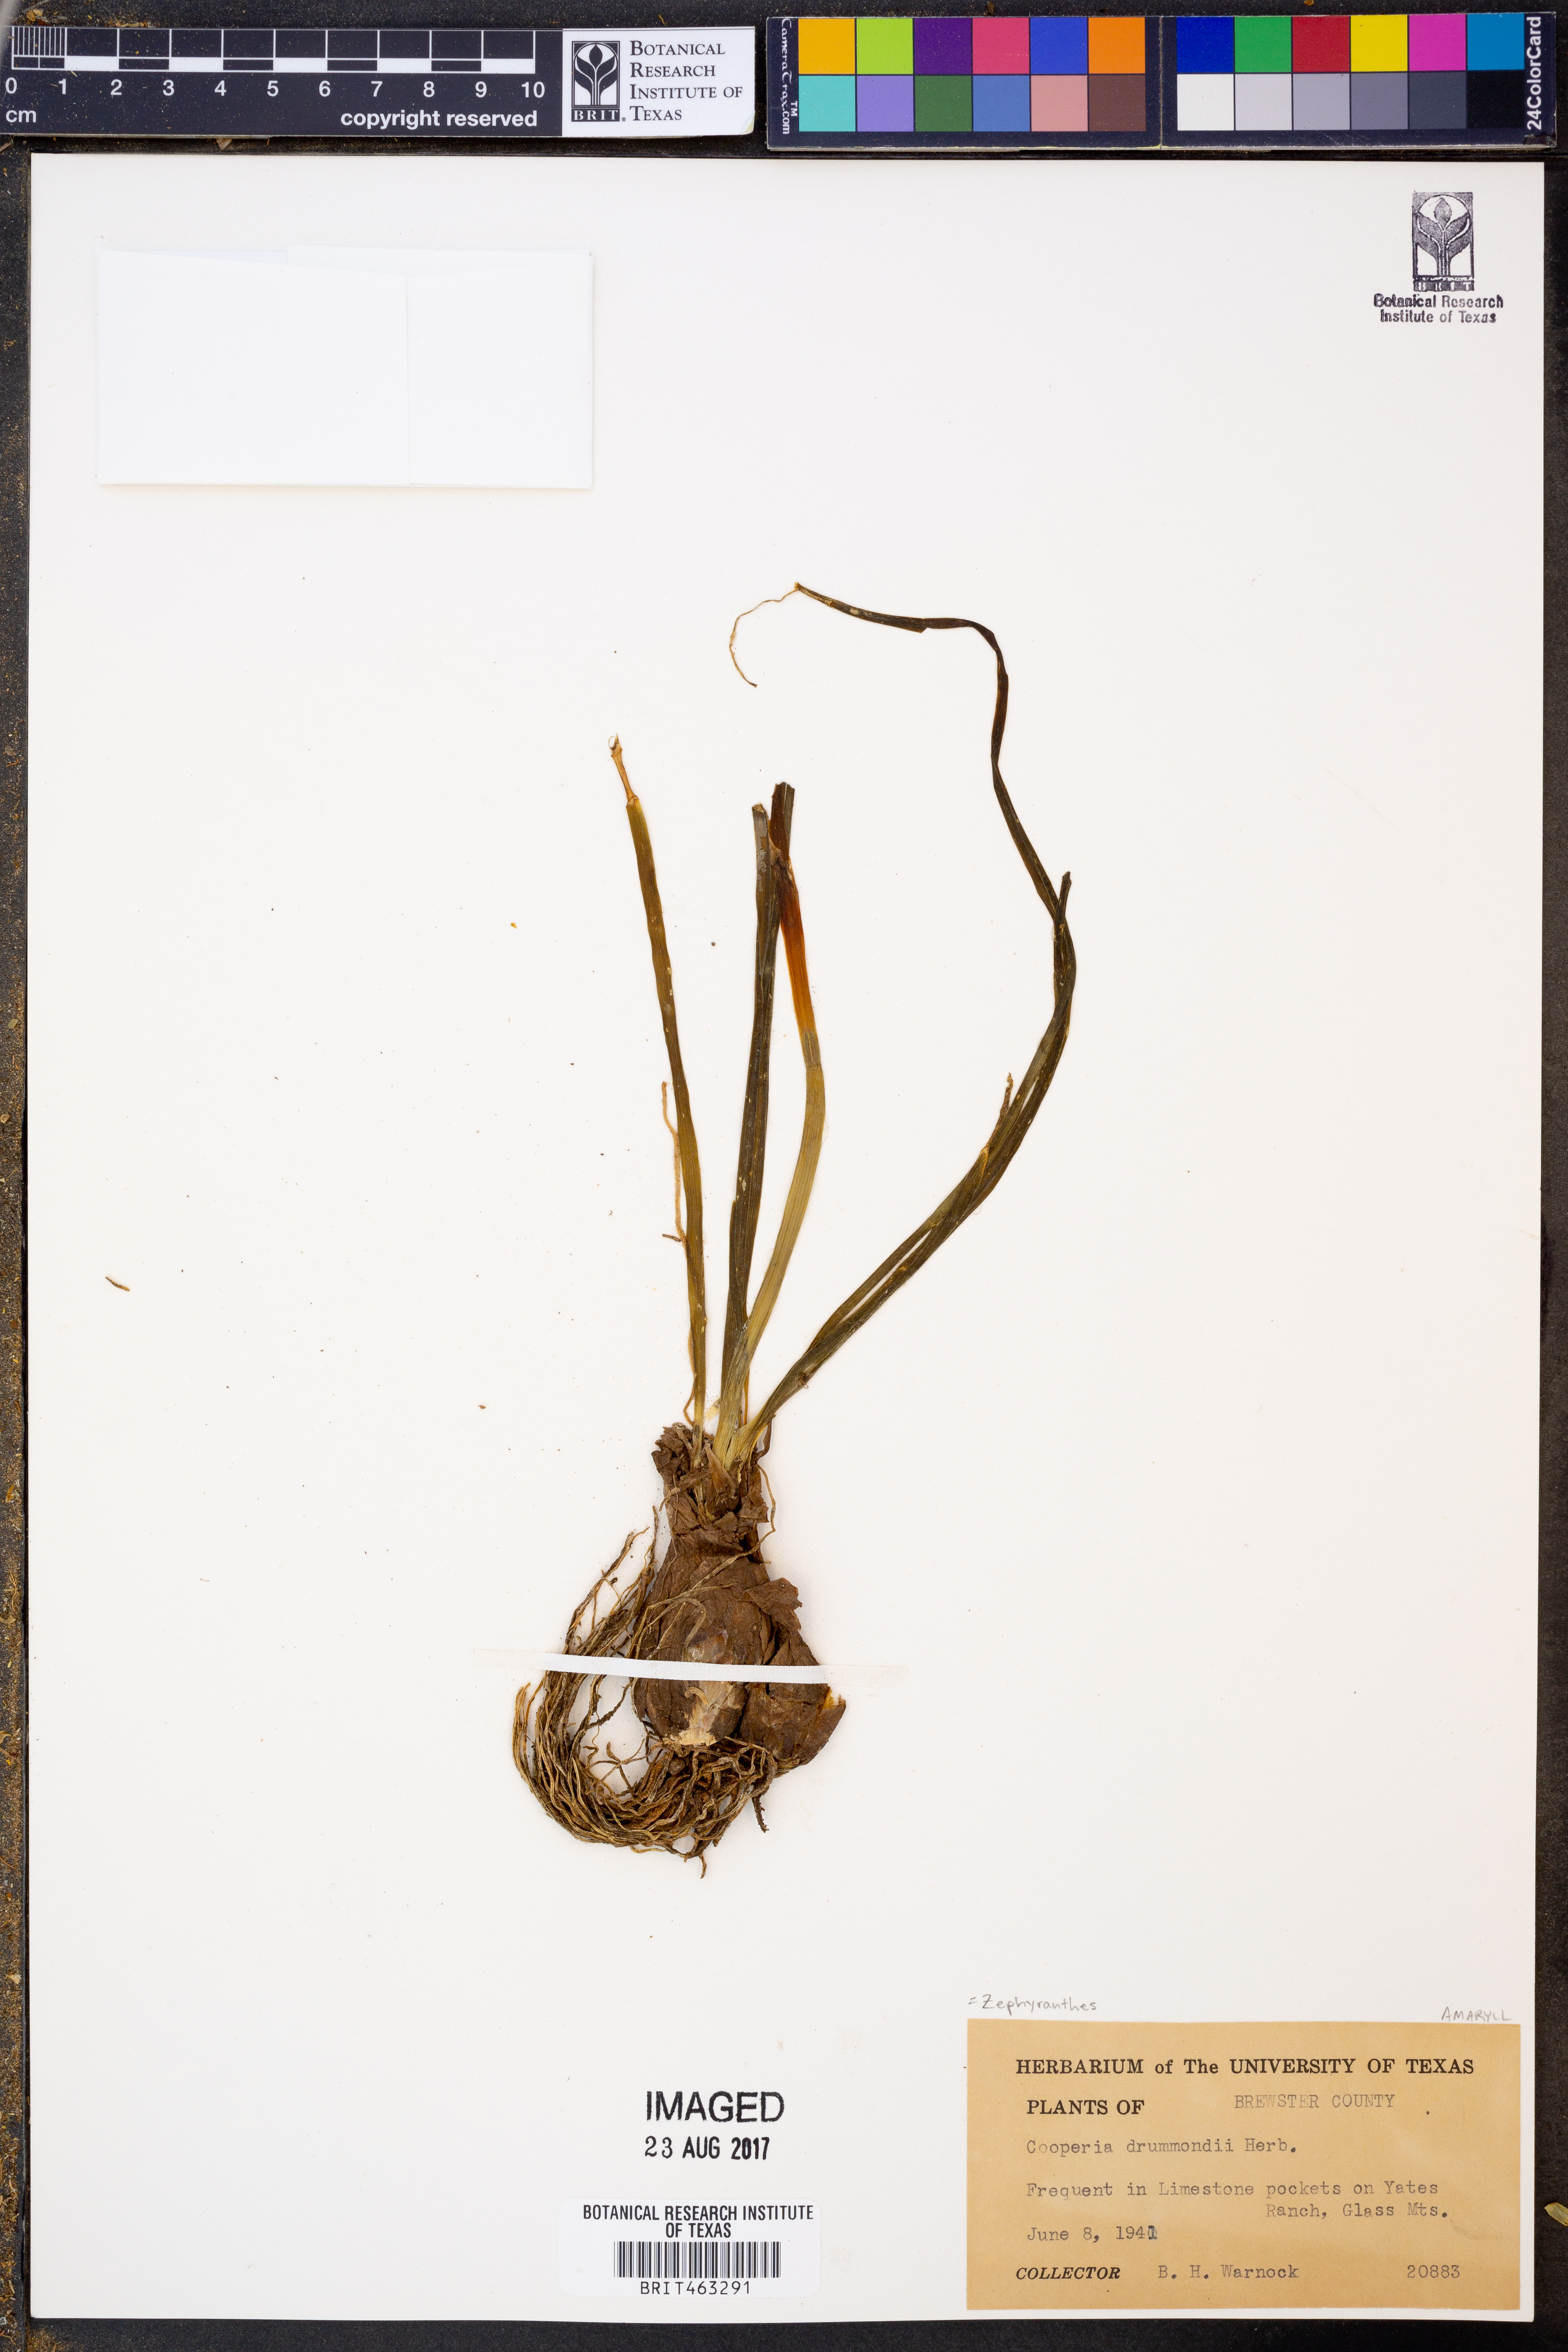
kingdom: Plantae
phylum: Tracheophyta
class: Liliopsida
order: Asparagales
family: Amaryllidaceae
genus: Zephyranthes
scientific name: Zephyranthes chlorosolen
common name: Evening rain-lily
